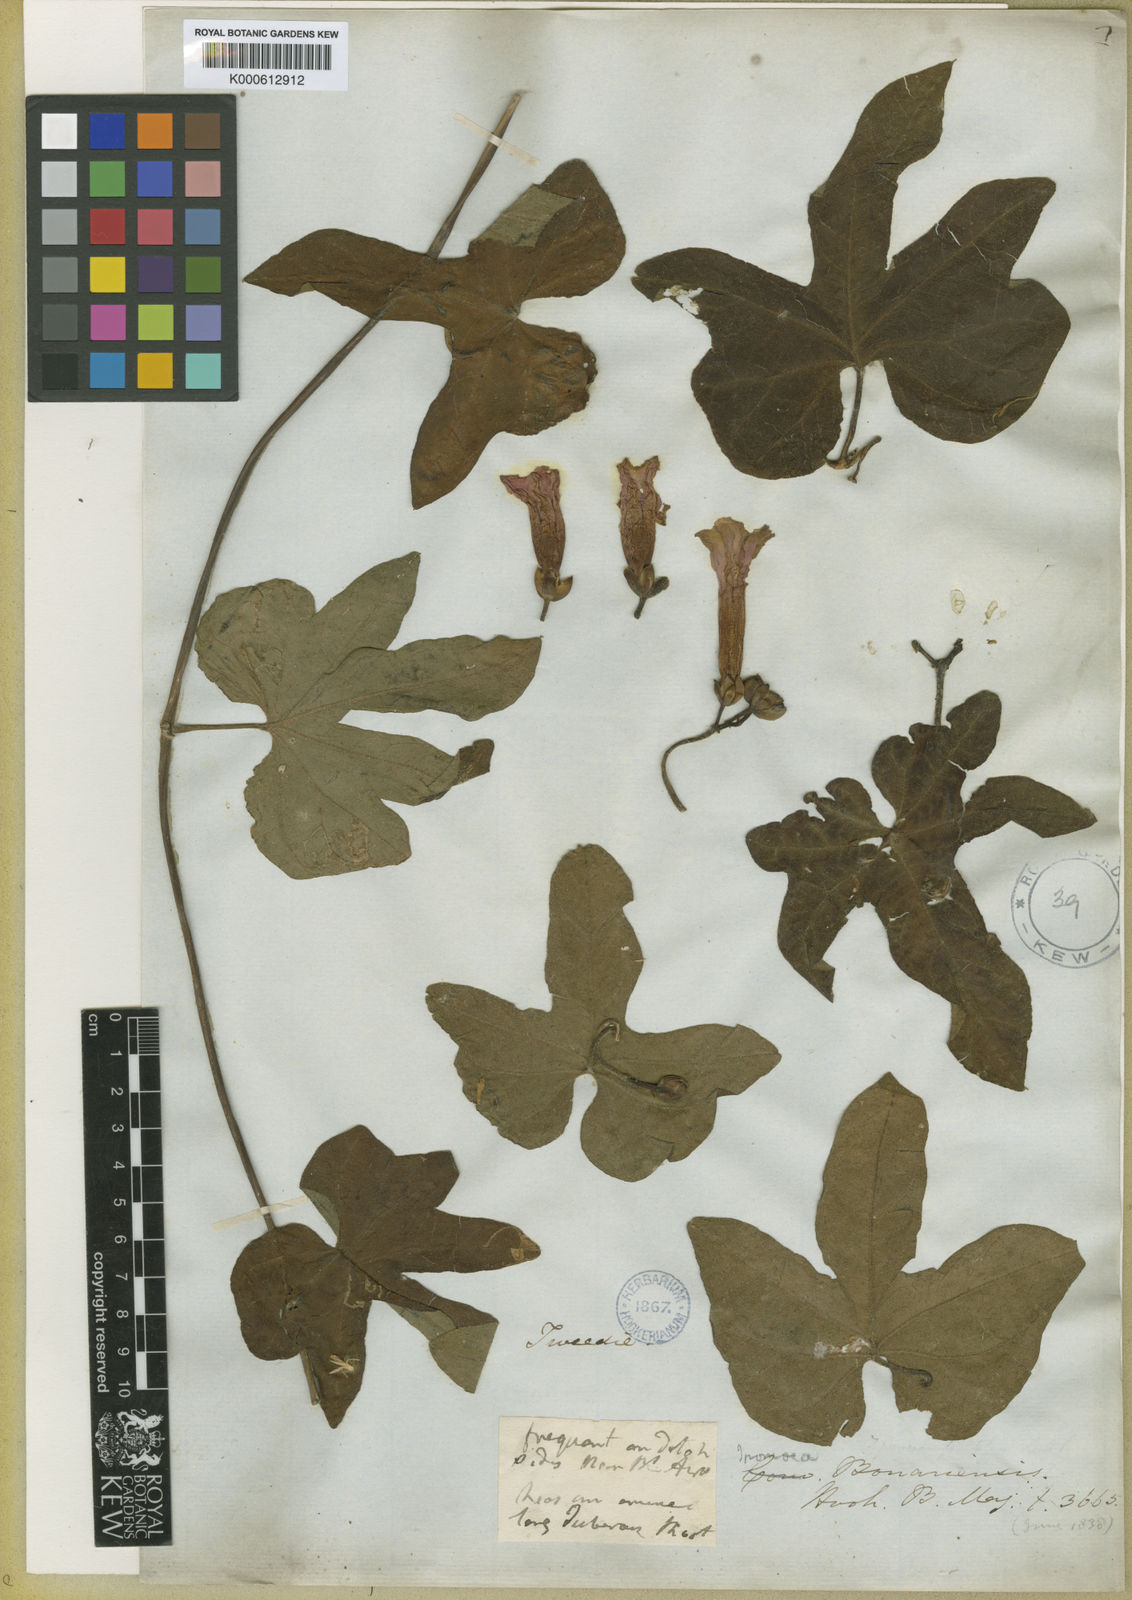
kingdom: Plantae
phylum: Tracheophyta
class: Magnoliopsida
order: Solanales
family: Convolvulaceae
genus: Ipomoea
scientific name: Ipomoea bonariensis
